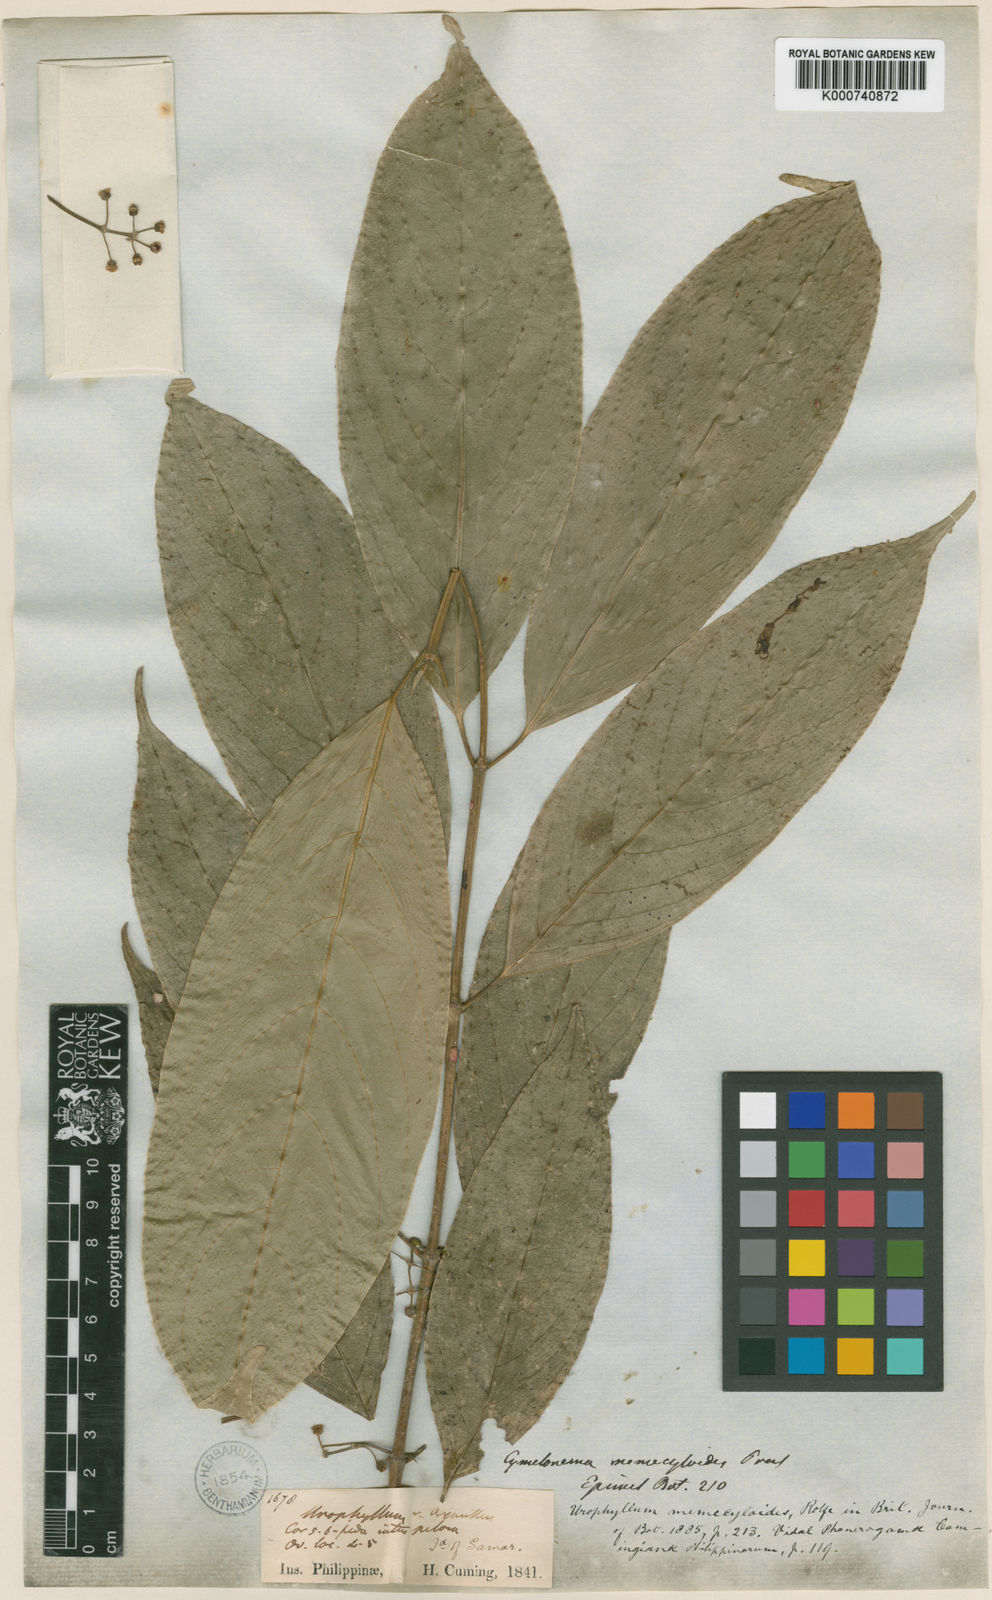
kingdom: Plantae
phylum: Tracheophyta
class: Magnoliopsida
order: Gentianales
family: Rubiaceae
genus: Urophyllum
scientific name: Urophyllum memecyloides
